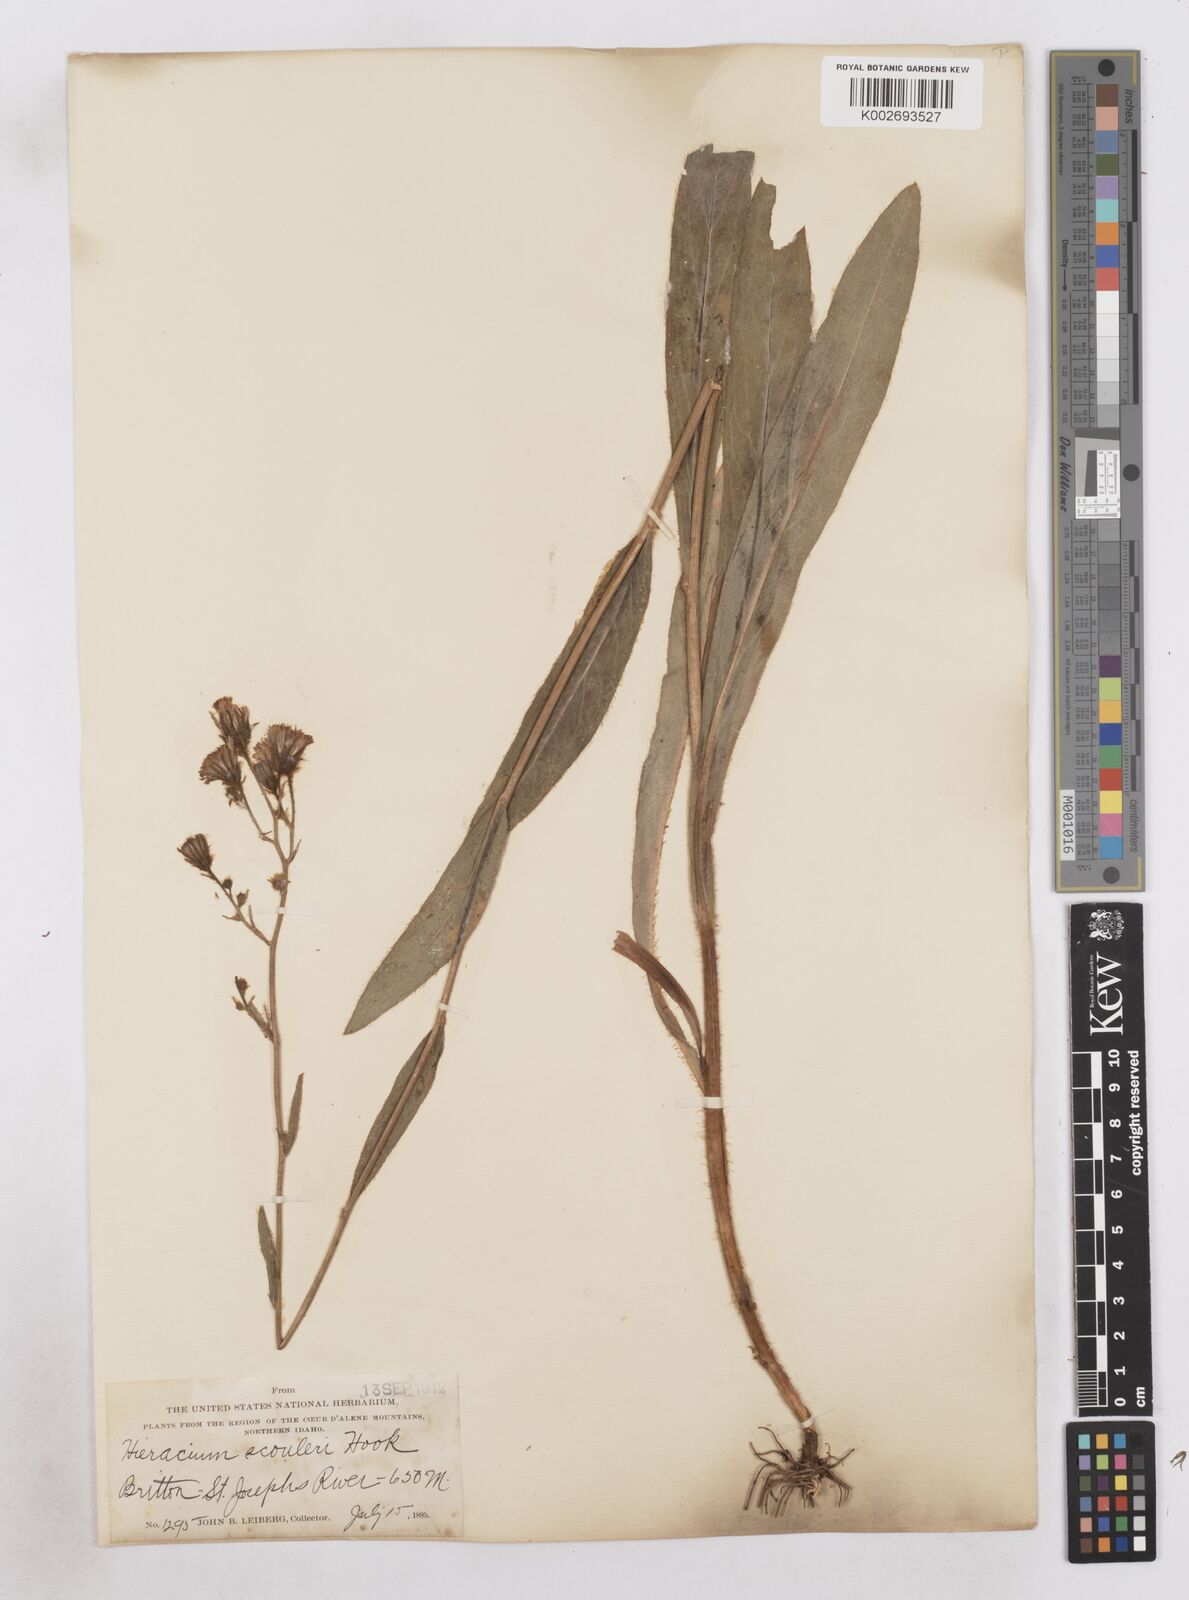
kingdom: Plantae
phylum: Tracheophyta
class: Magnoliopsida
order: Asterales
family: Asteraceae
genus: Hieracium
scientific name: Hieracium scouleri
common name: Hound's-tongue hawkweed
